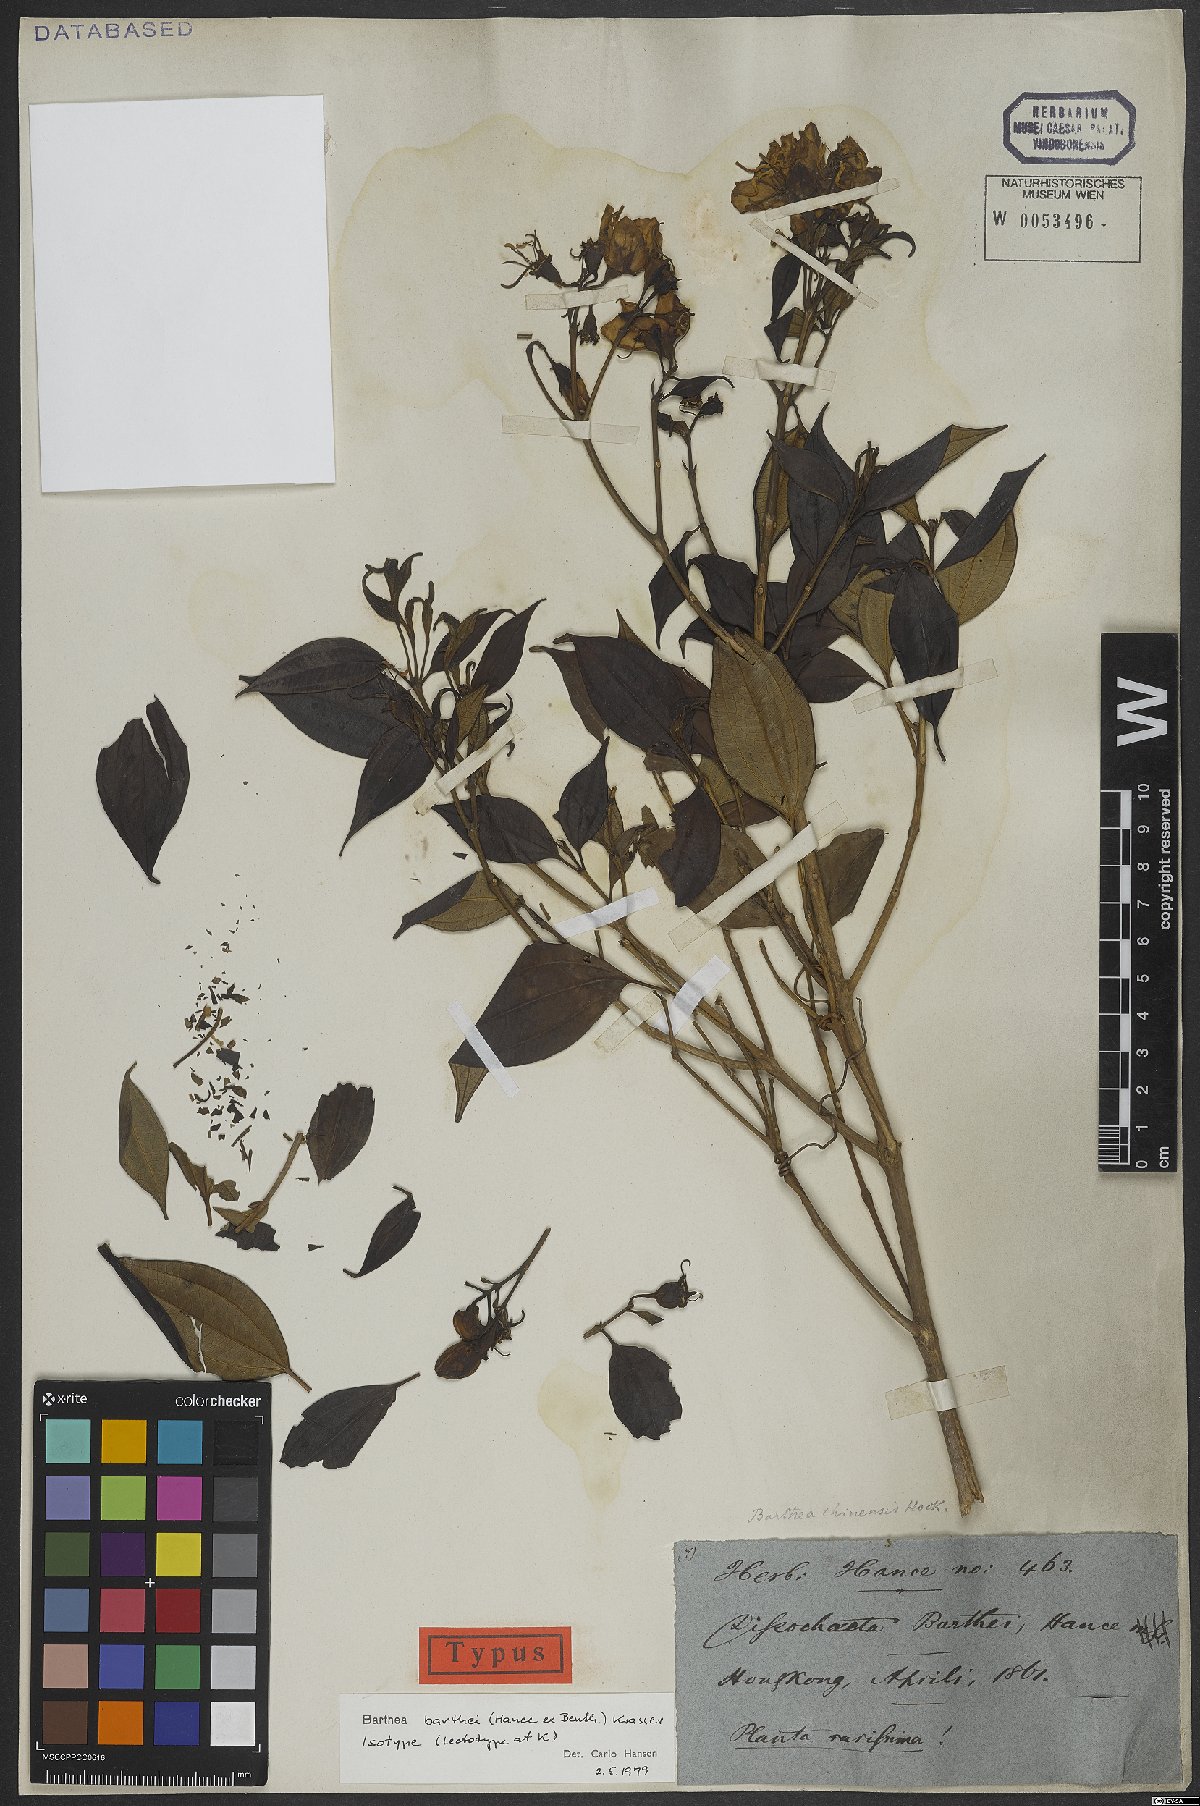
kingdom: Plantae
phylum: Tracheophyta
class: Magnoliopsida
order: Myrtales
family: Melastomataceae
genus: Barthea
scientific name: Barthea barthei
